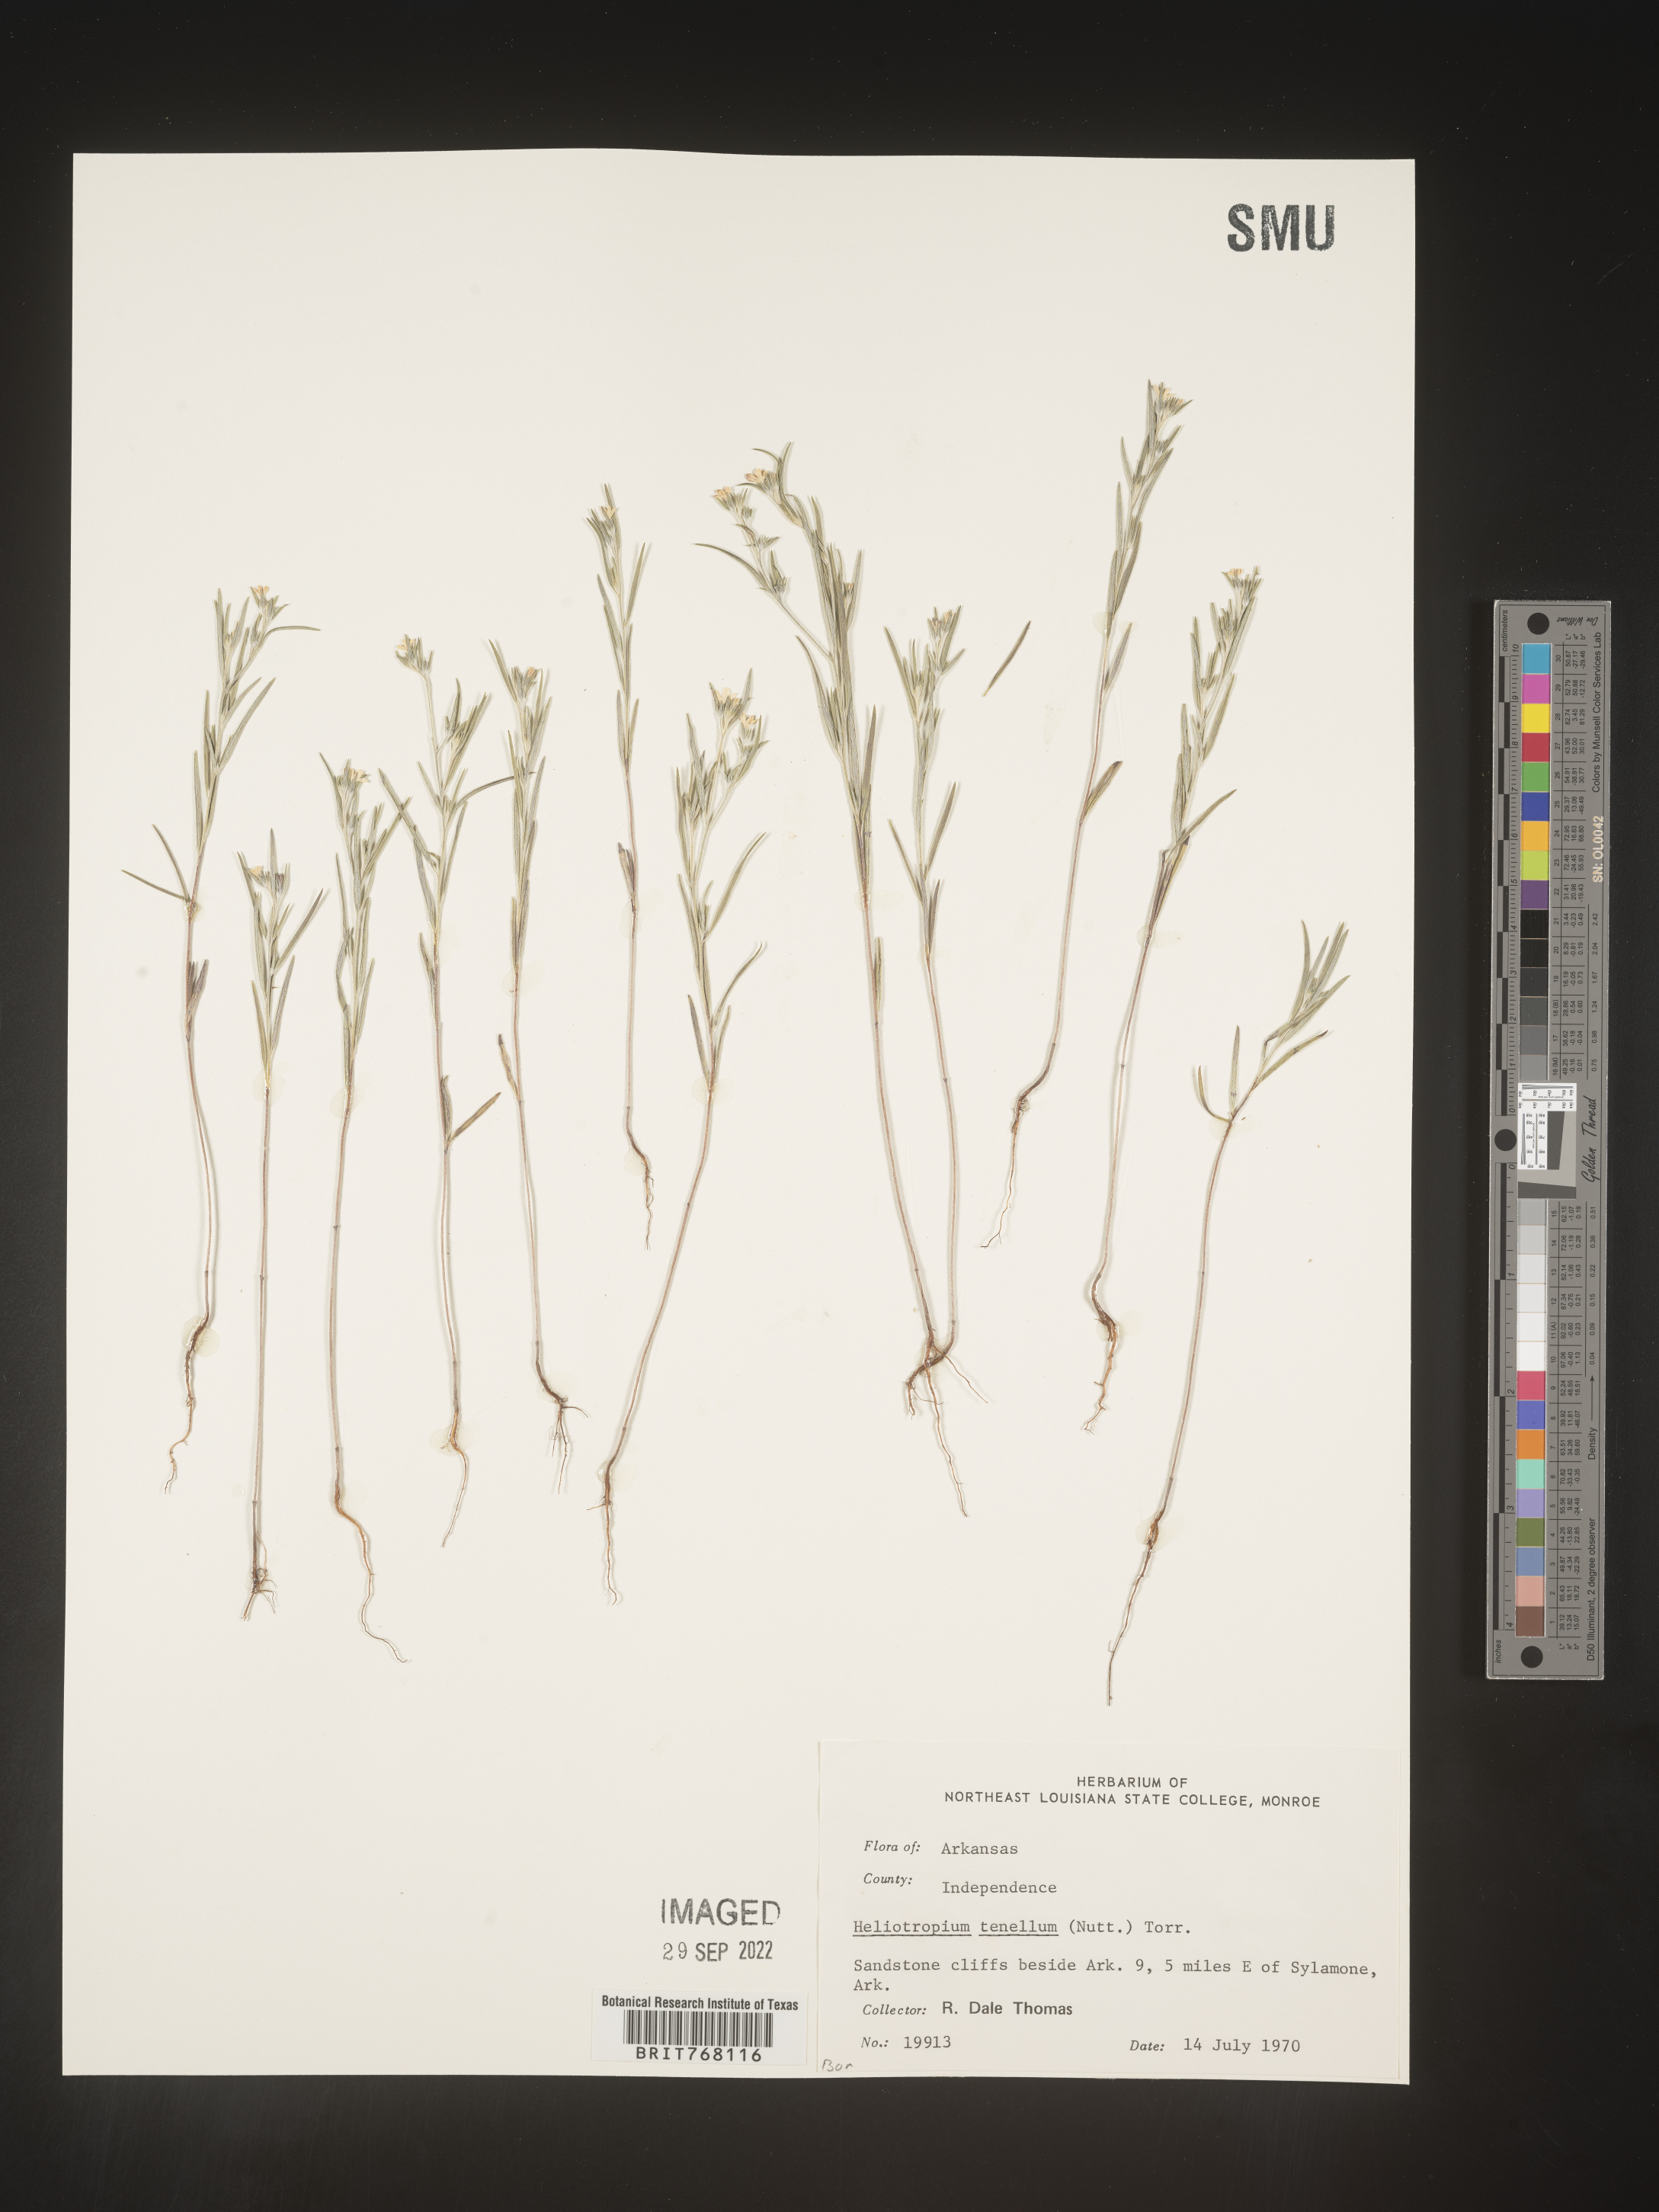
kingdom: Plantae
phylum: Tracheophyta
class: Magnoliopsida
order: Boraginales
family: Heliotropiaceae
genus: Euploca
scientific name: Euploca tenella
